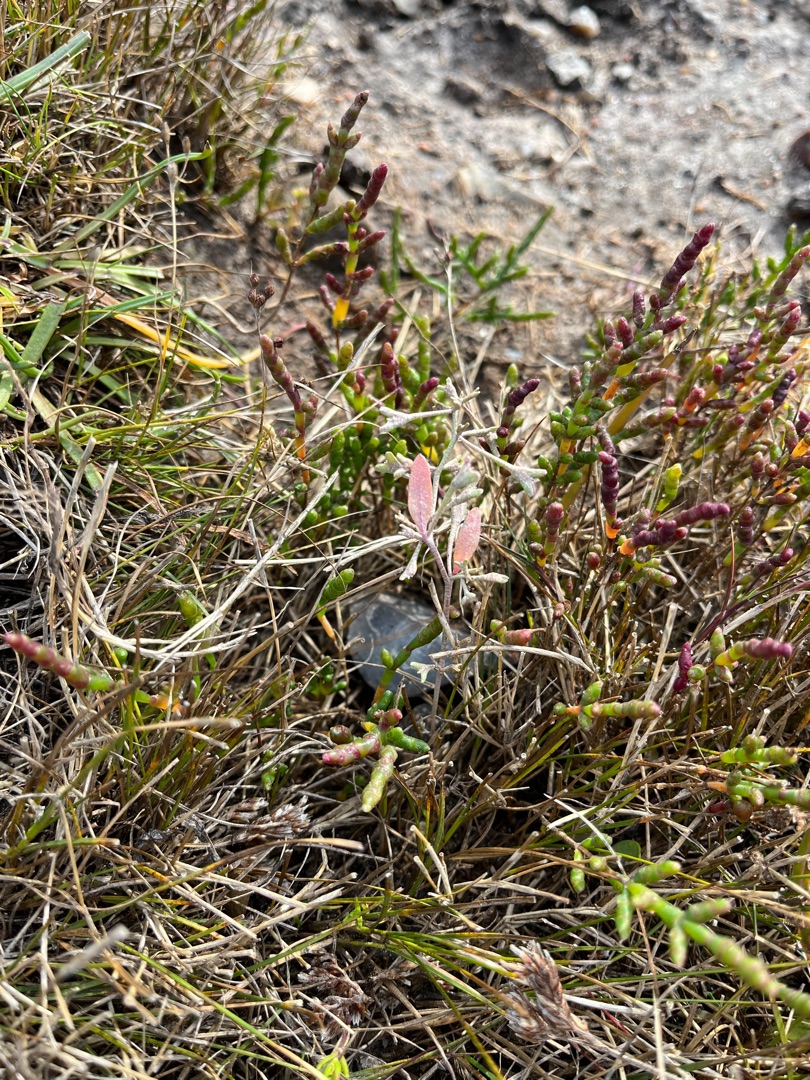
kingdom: Plantae
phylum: Tracheophyta
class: Magnoliopsida
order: Caryophyllales
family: Amaranthaceae
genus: Halimione
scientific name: Halimione pedunculata
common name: Stilket kilebæger
